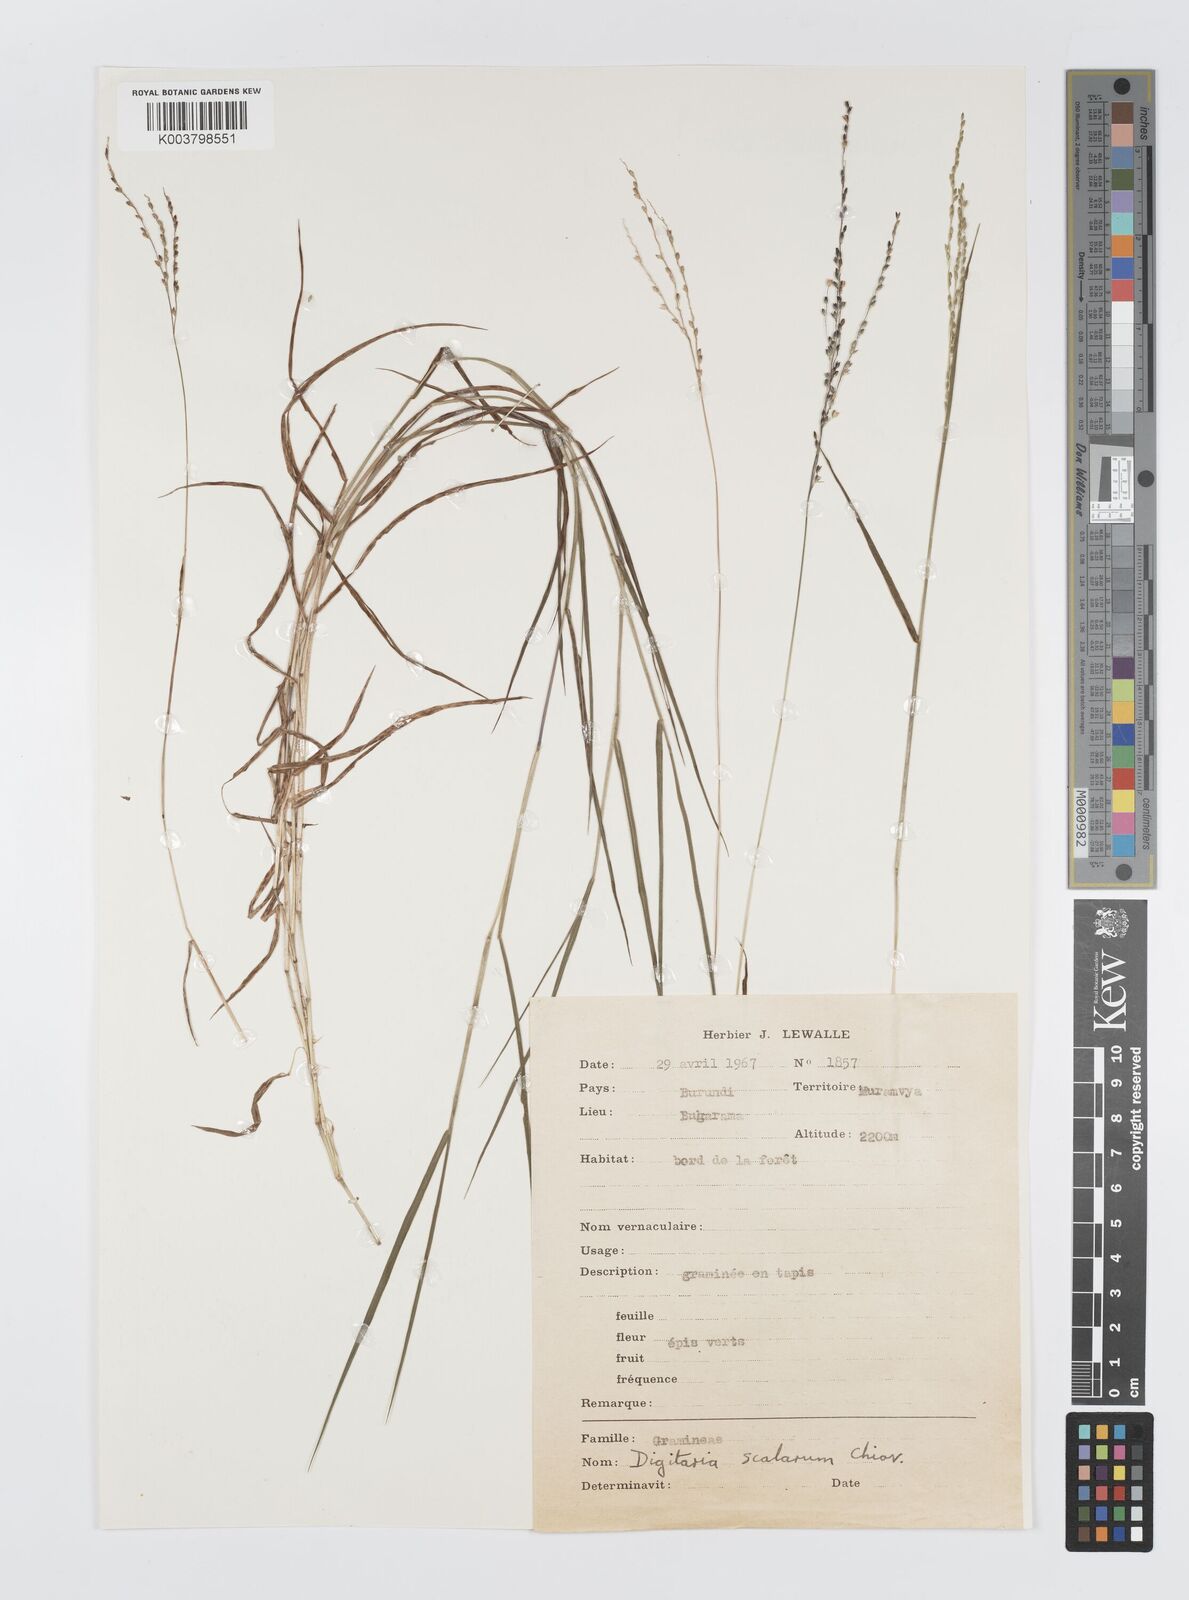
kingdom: Plantae
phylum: Tracheophyta
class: Liliopsida
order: Poales
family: Poaceae
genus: Digitaria
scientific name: Digitaria abyssinica
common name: African couchgrass
